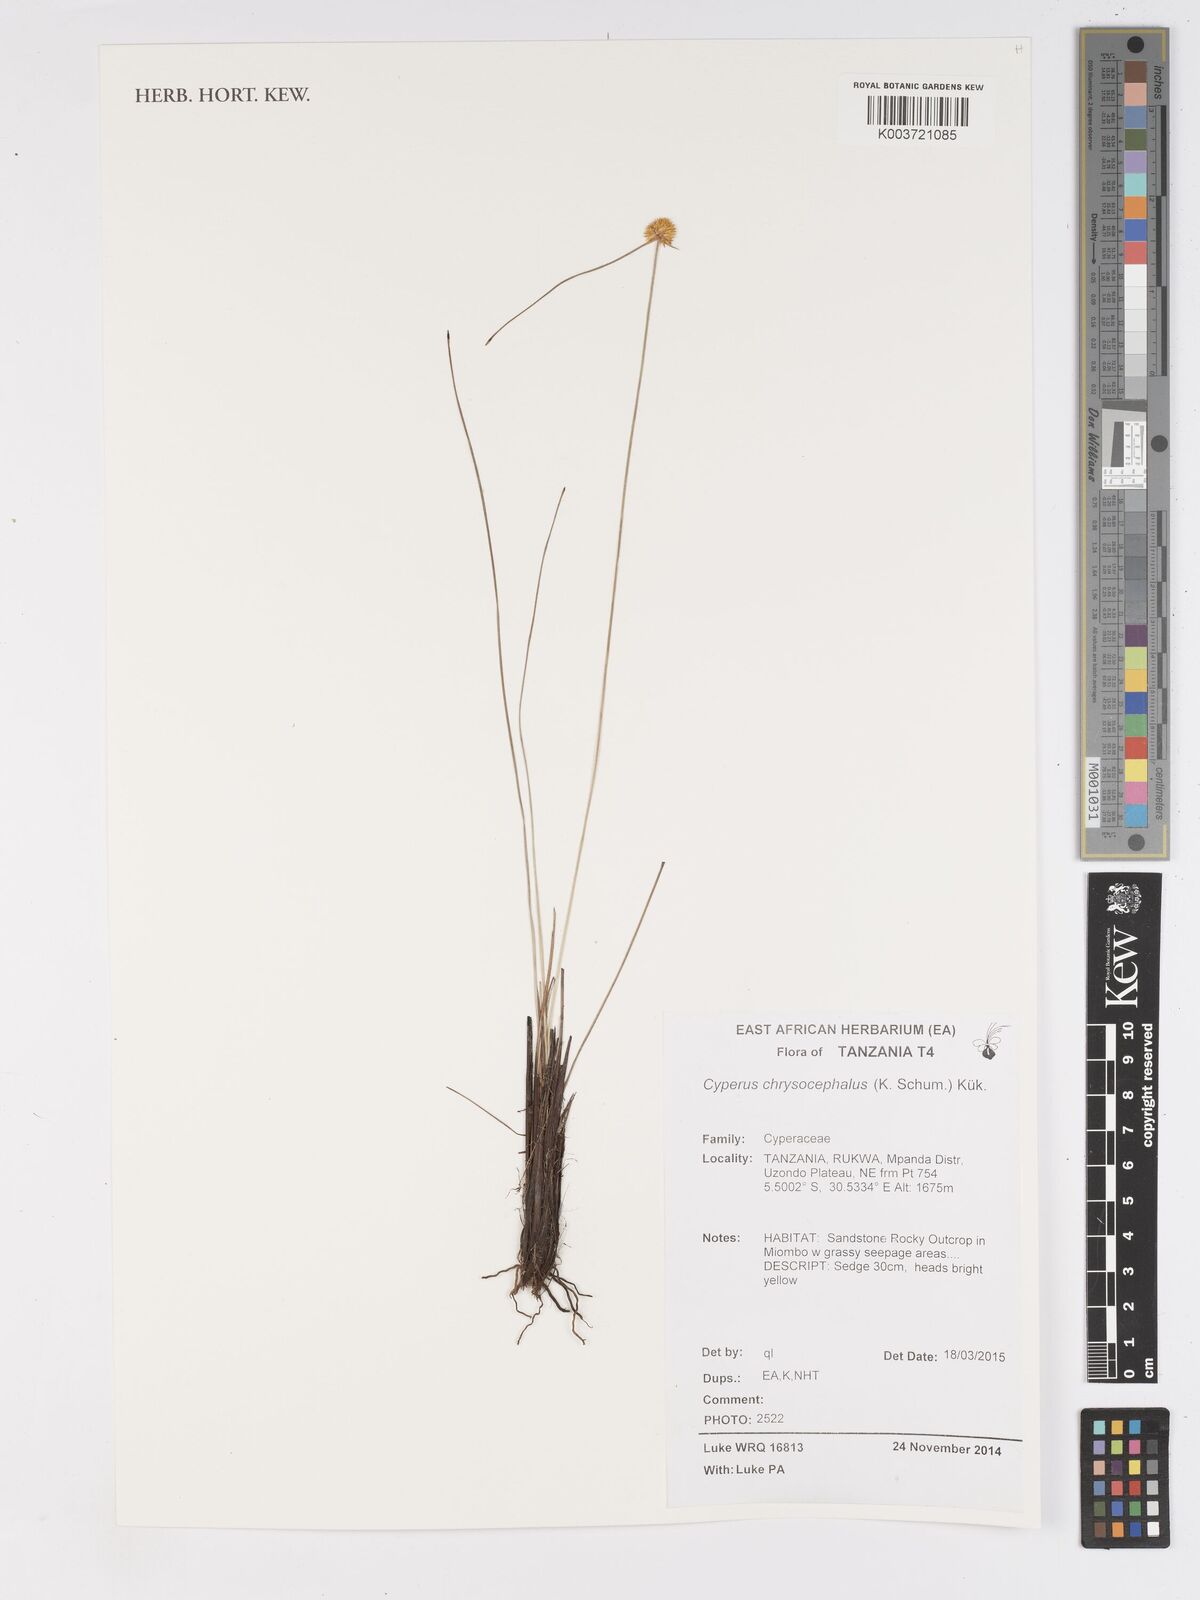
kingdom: Plantae
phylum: Tracheophyta
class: Liliopsida
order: Poales
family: Cyperaceae
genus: Cyperus
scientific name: Cyperus chrysocephalus
